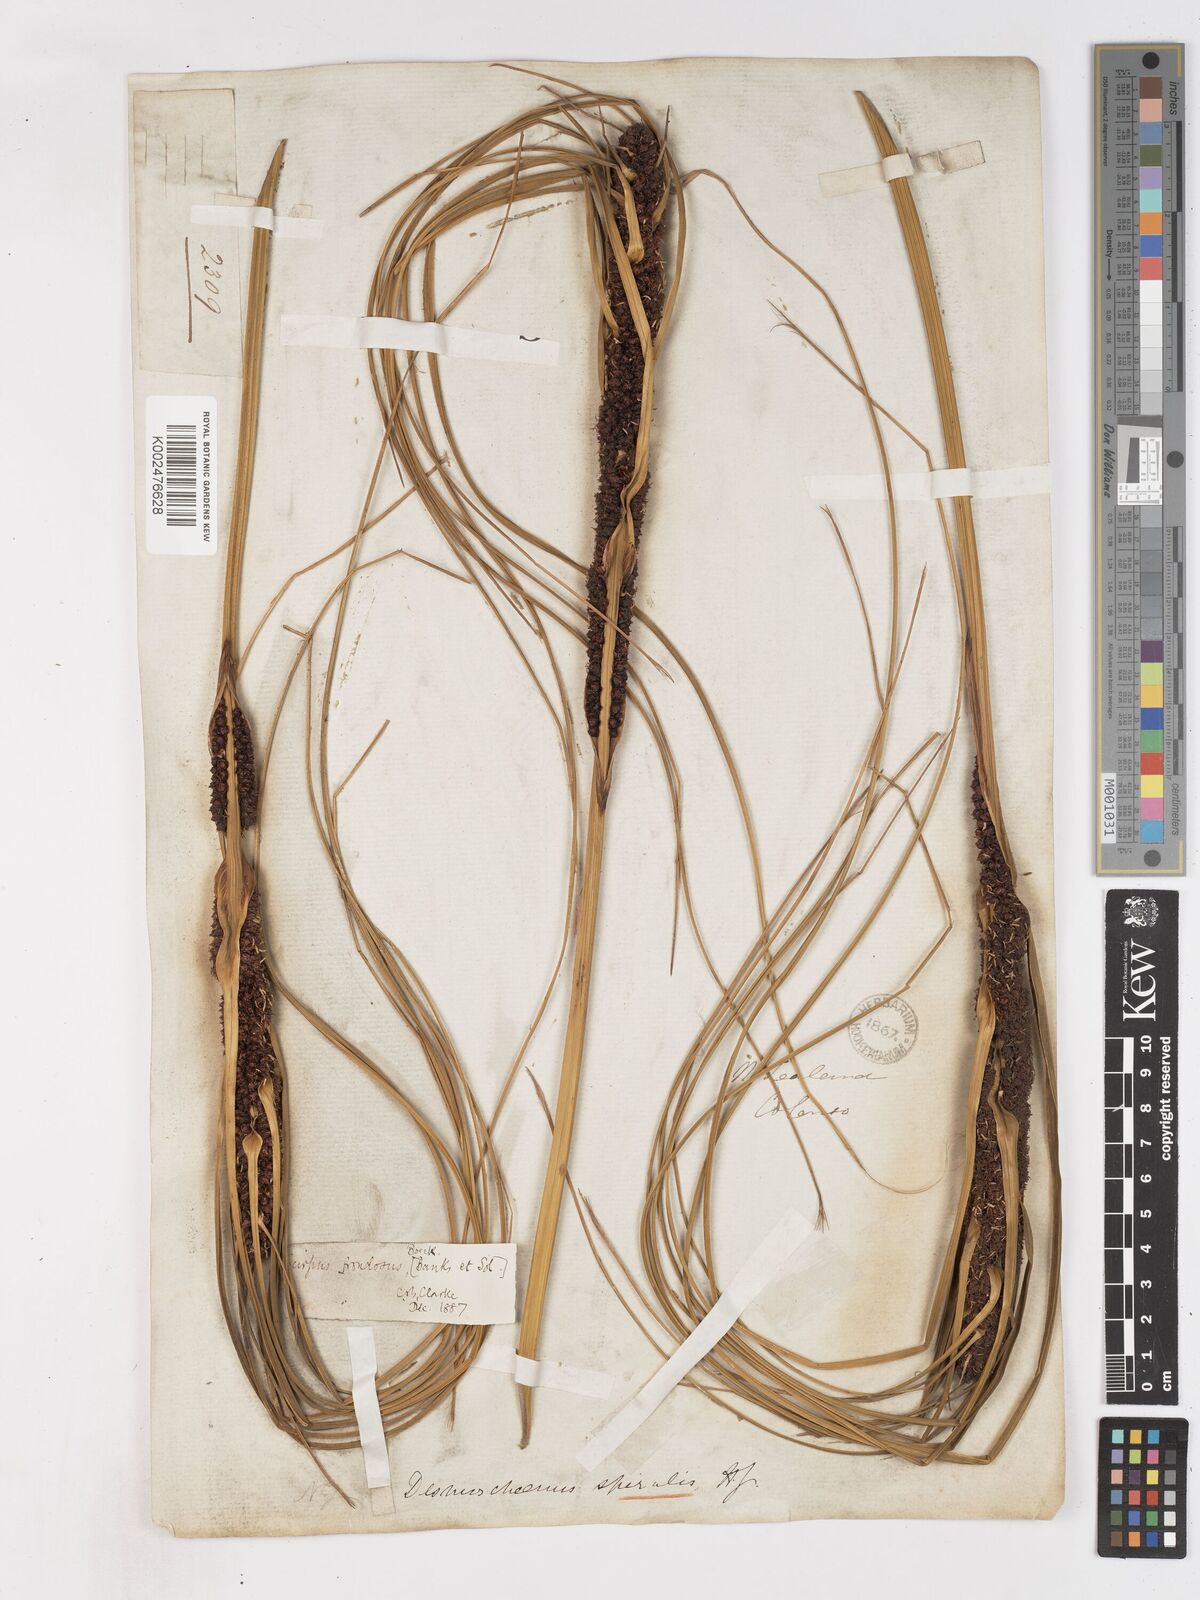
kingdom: Plantae
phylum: Tracheophyta
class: Liliopsida
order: Poales
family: Cyperaceae
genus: Ficinia
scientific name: Ficinia
